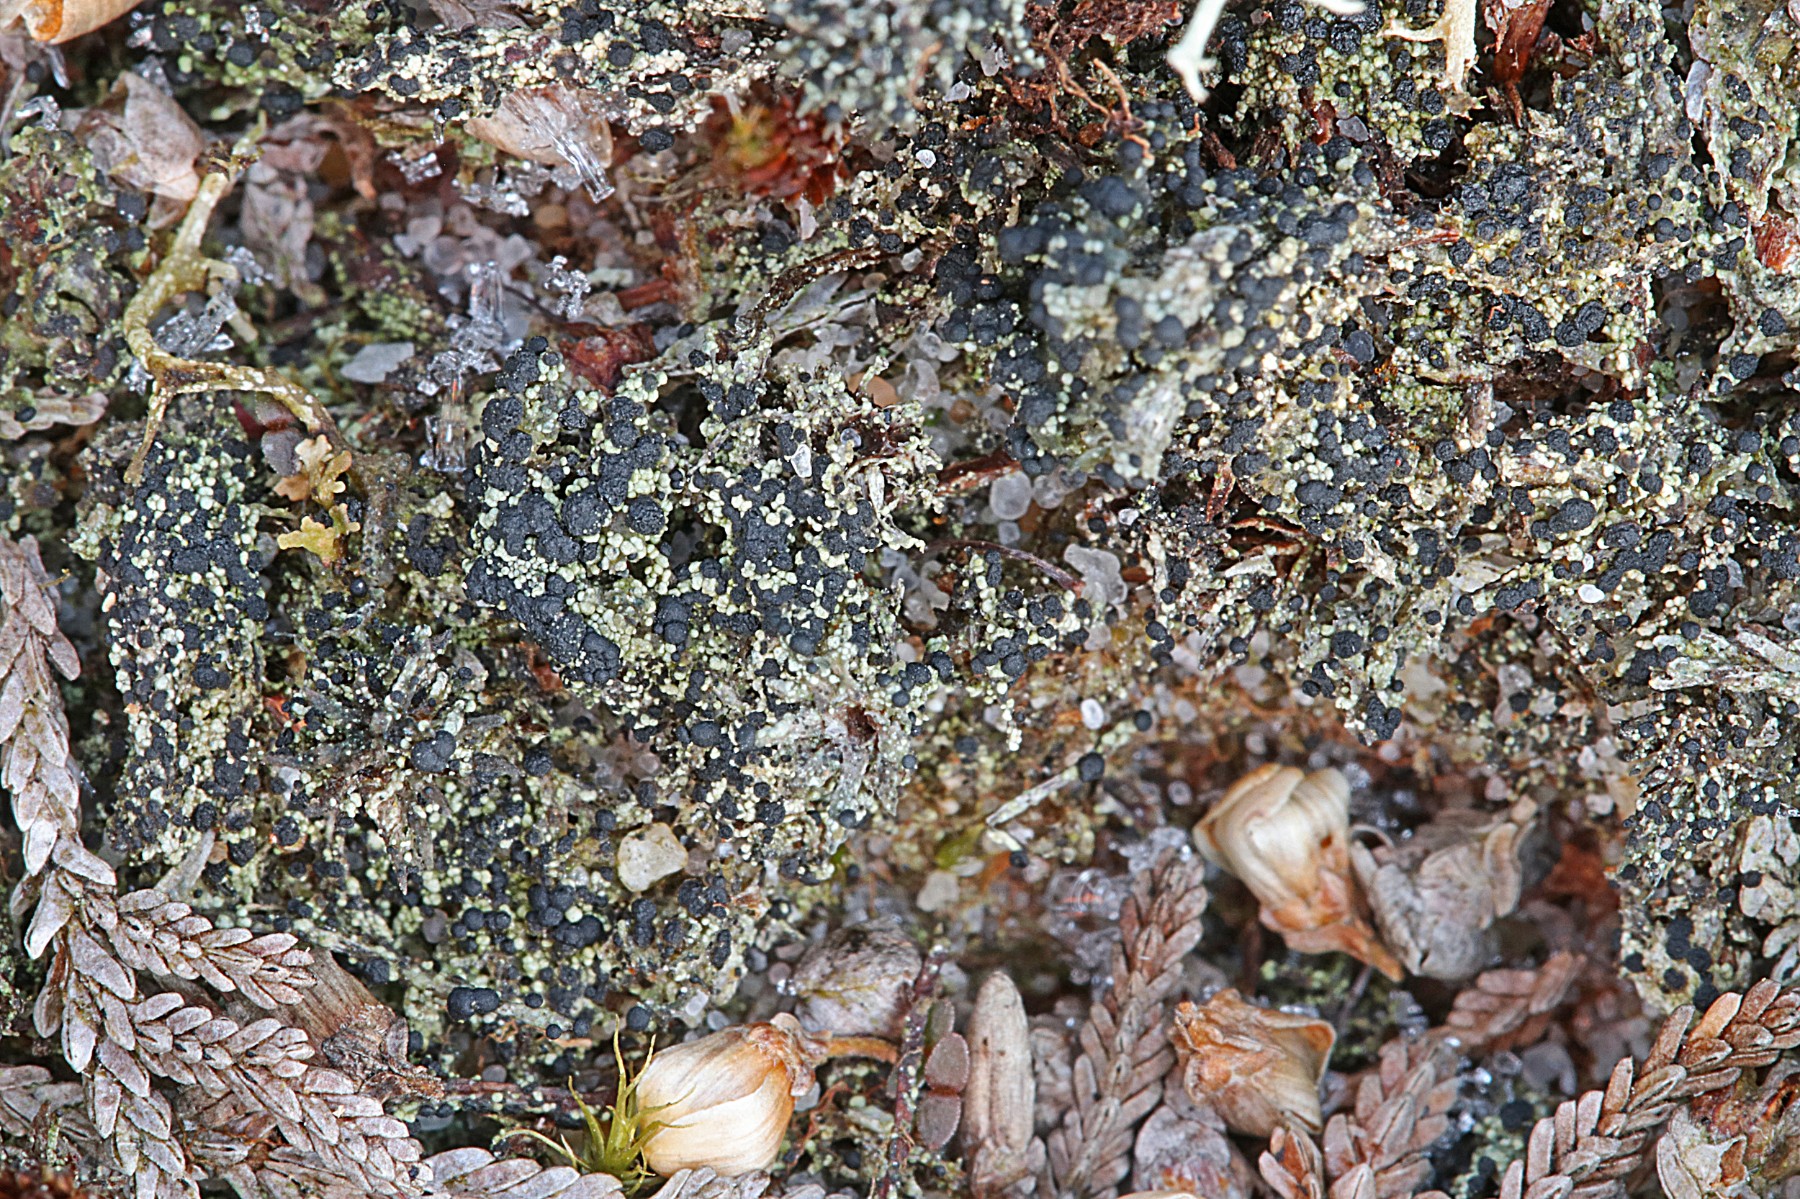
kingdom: Fungi
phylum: Ascomycota
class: Lecanoromycetes
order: Lecanorales
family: Byssolomataceae
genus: Micarea
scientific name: Micarea lignaria
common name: tørve-knaplav
